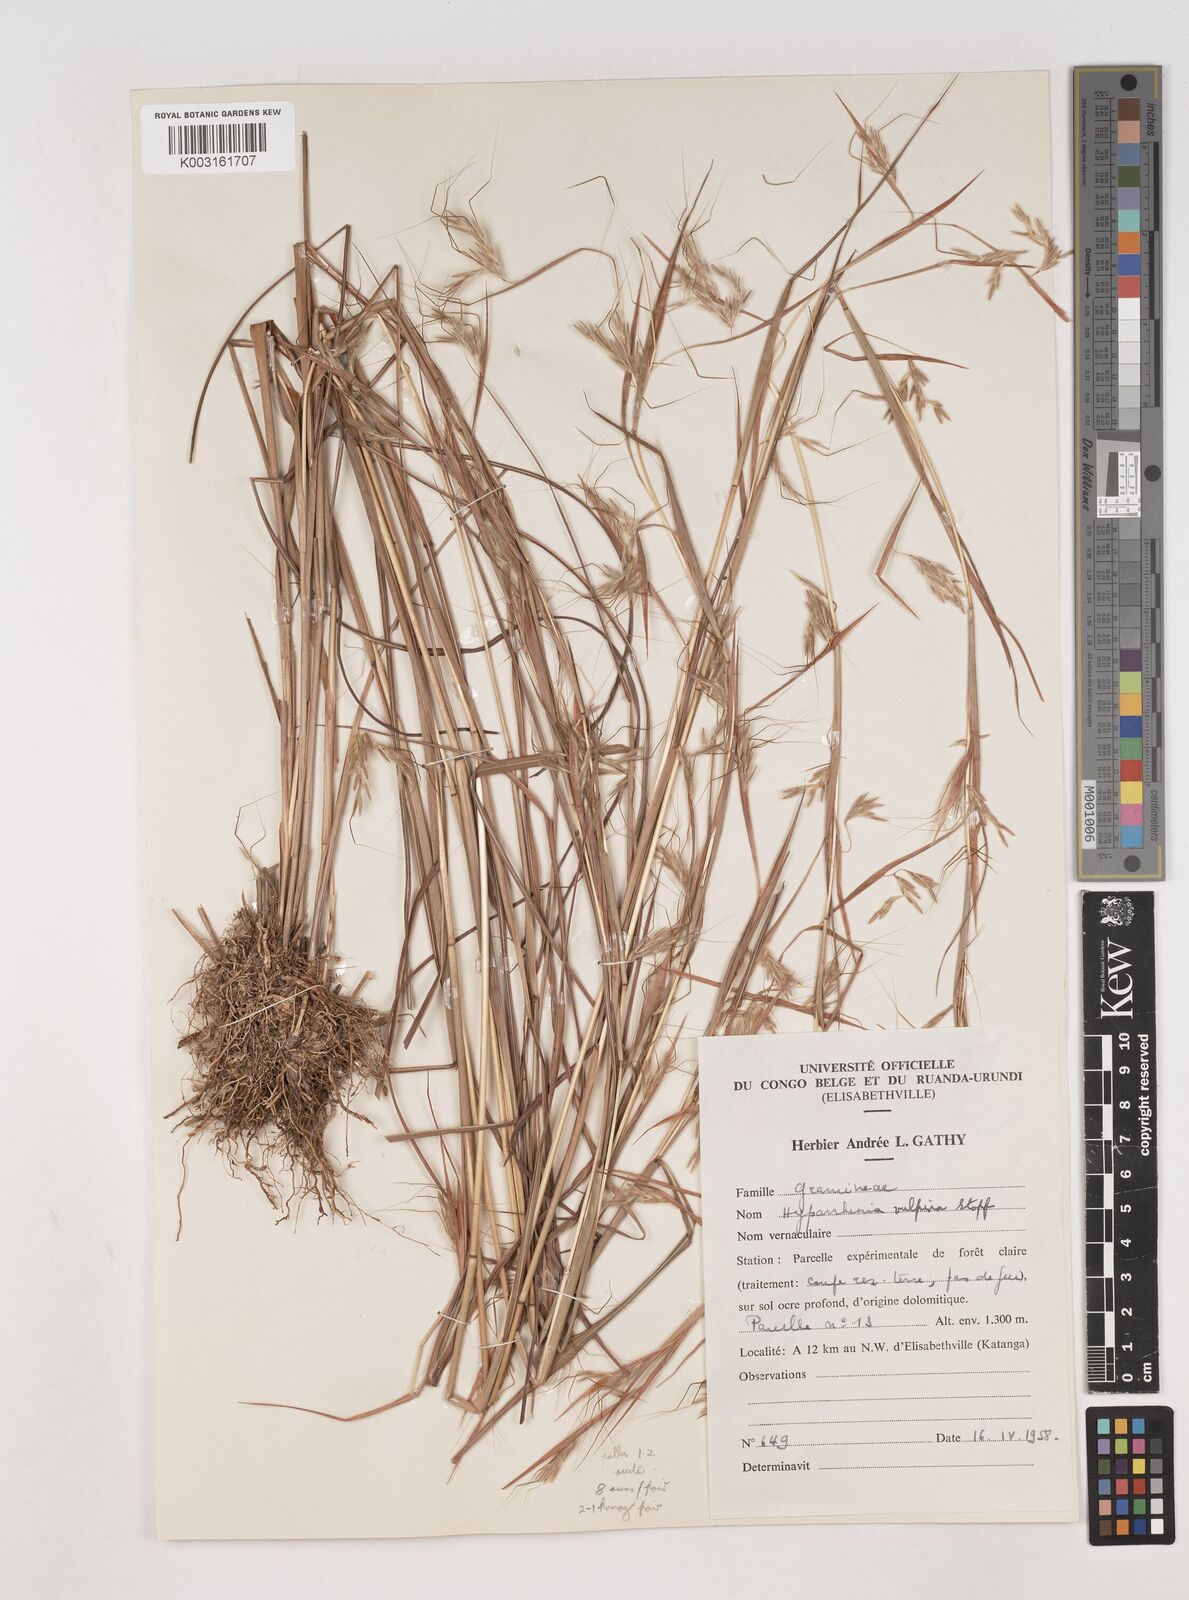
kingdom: Plantae
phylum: Tracheophyta
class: Liliopsida
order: Poales
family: Poaceae
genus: Hyparrhenia
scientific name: Hyparrhenia anamesa
